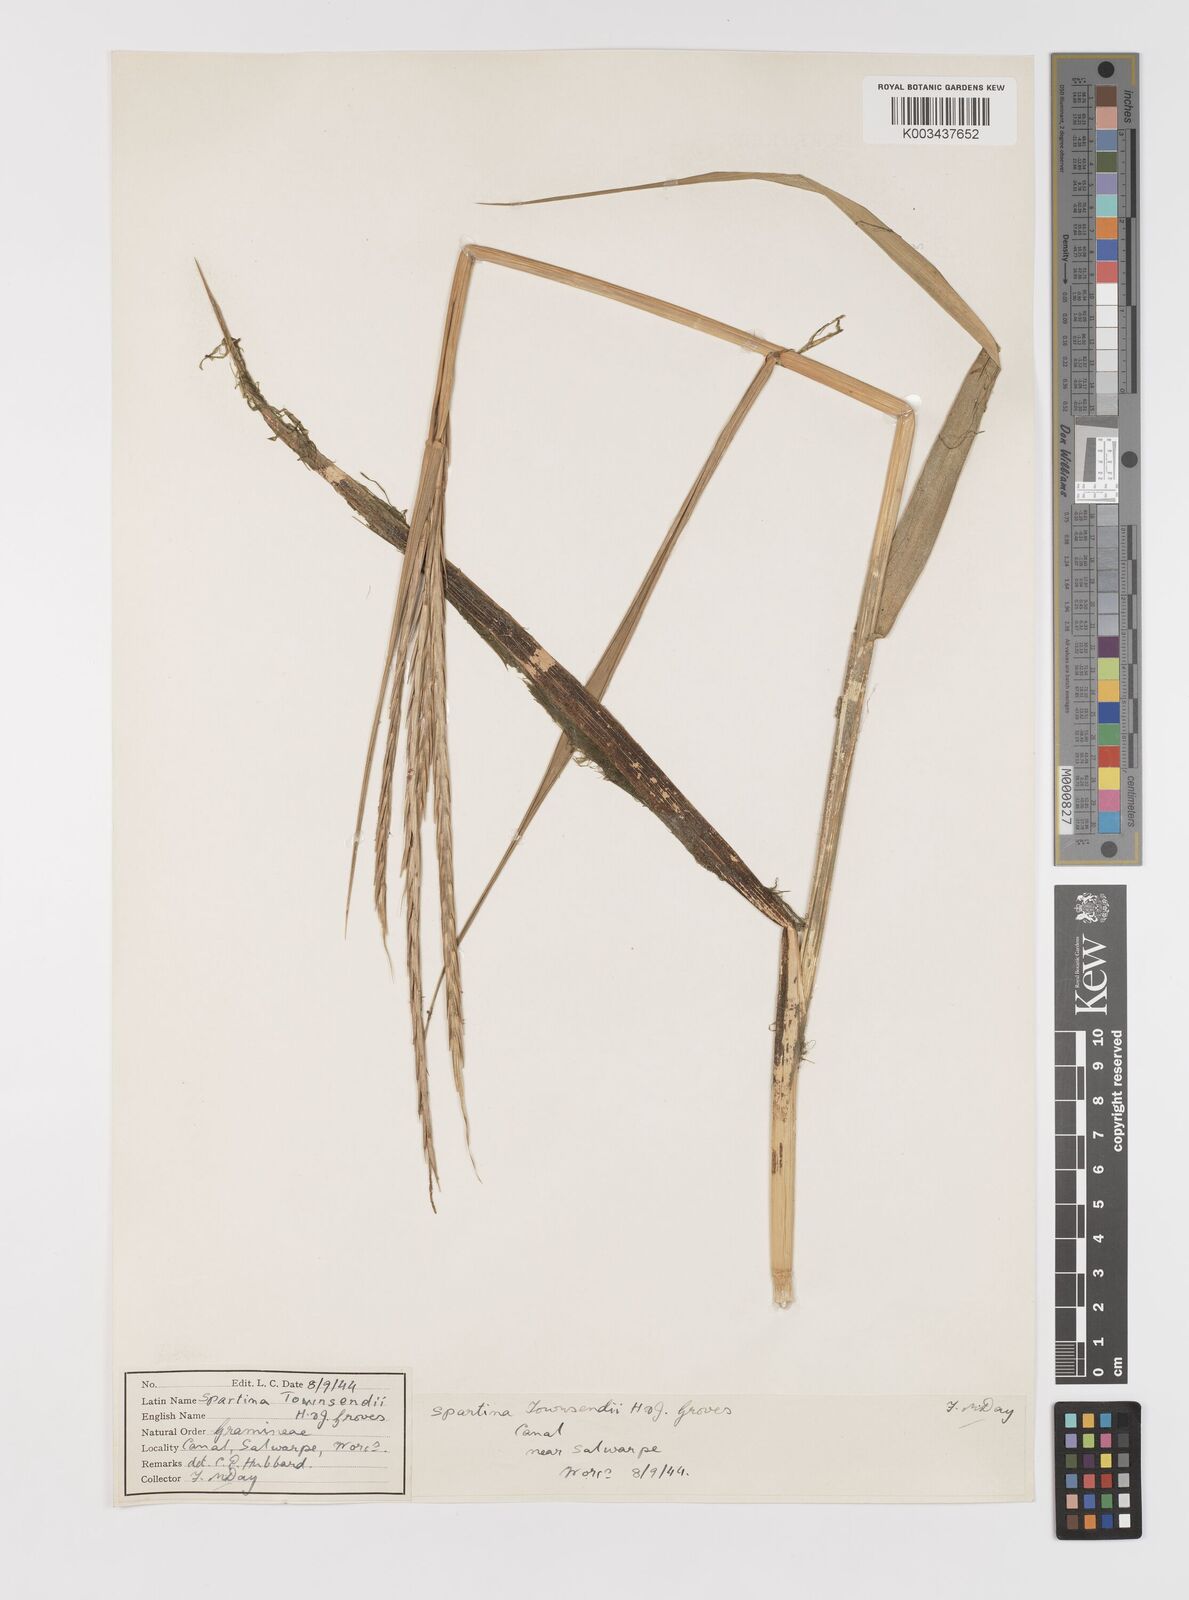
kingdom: Plantae
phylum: Tracheophyta
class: Liliopsida
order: Poales
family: Poaceae
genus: Sporobolus
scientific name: Sporobolus anglicus
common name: English cordgrass
